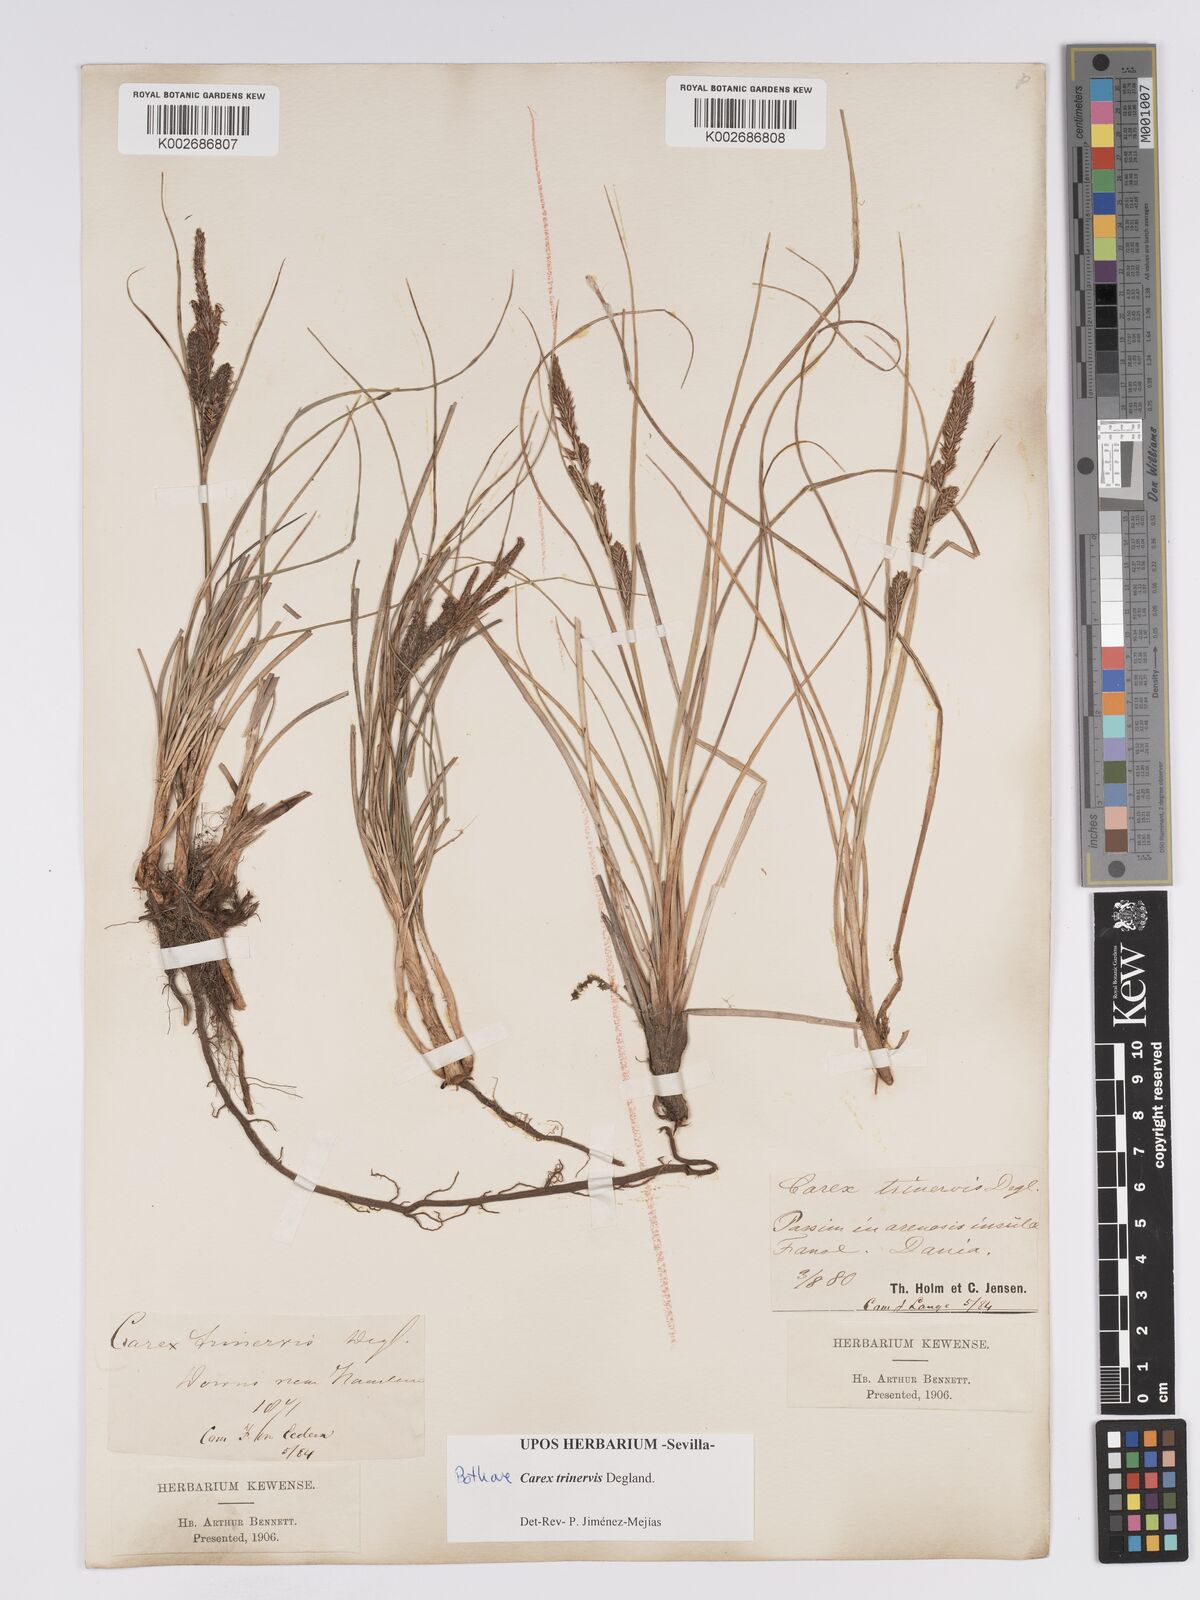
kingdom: Plantae
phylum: Tracheophyta
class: Liliopsida
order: Poales
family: Cyperaceae
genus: Carex
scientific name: Carex trinervis
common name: Three-nerved sedge
